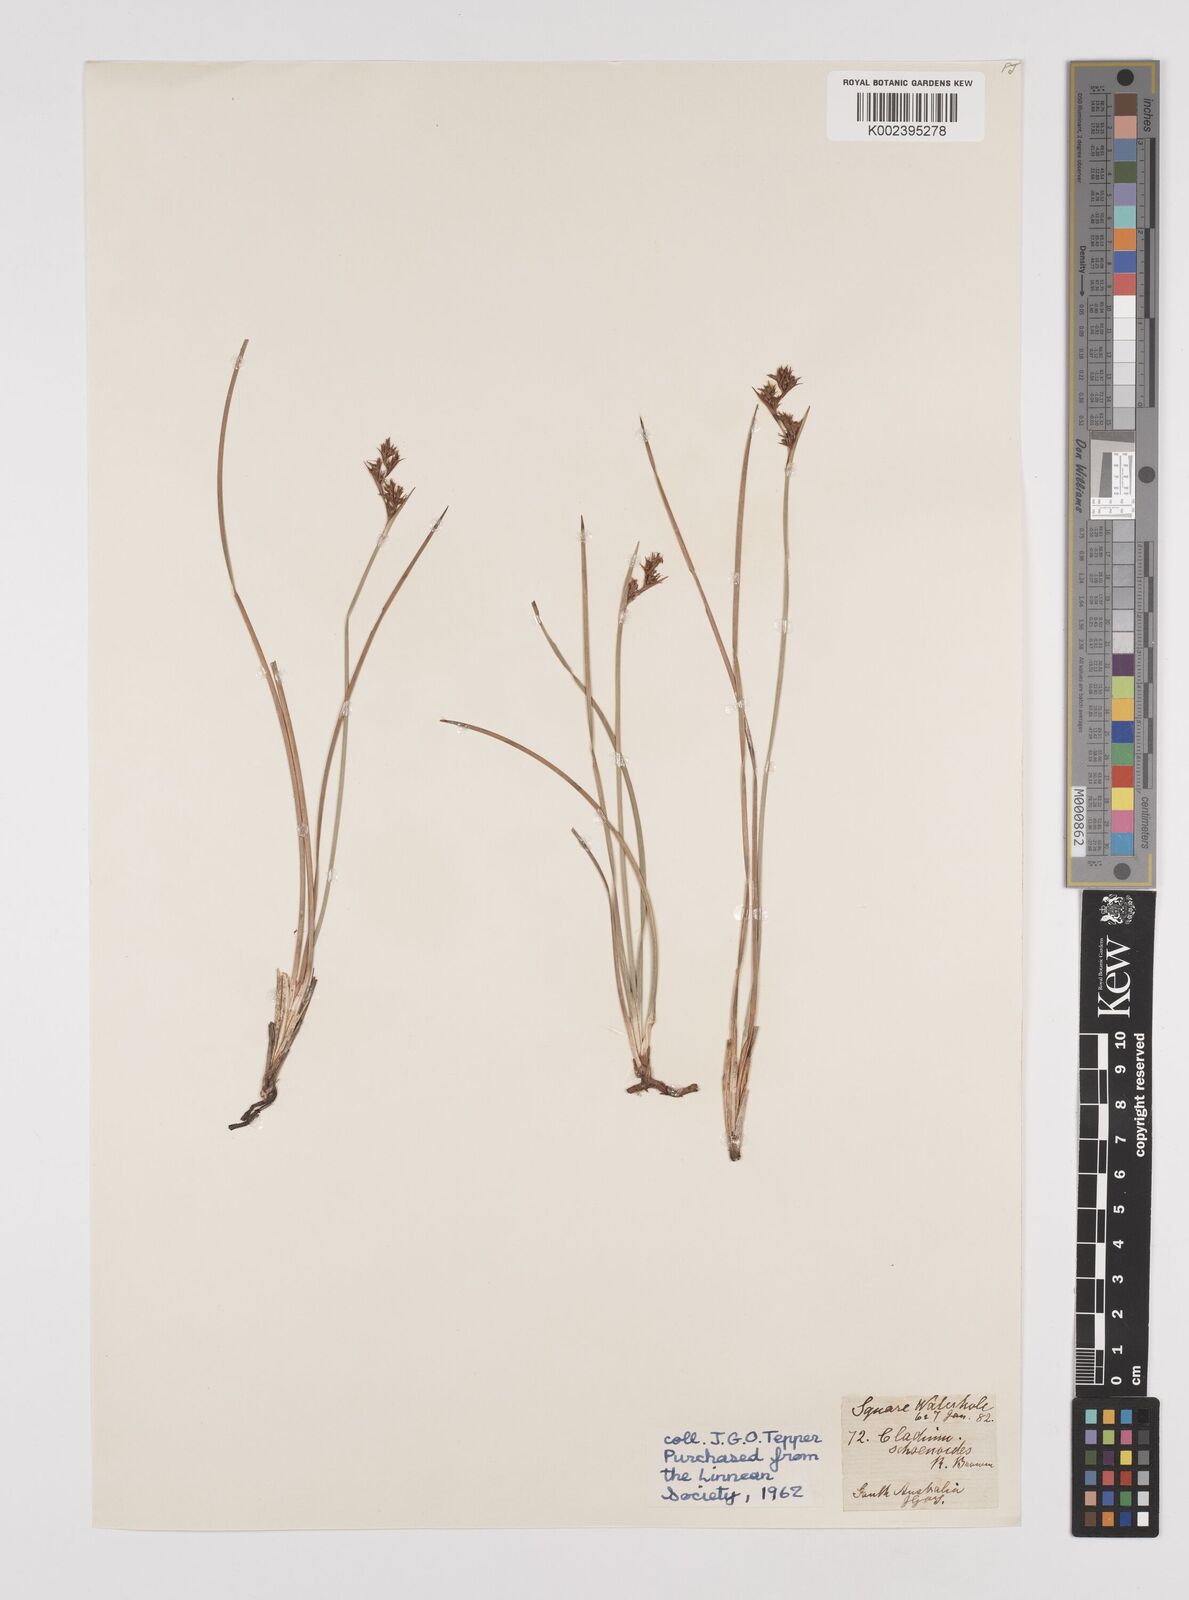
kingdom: Plantae
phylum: Tracheophyta
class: Liliopsida
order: Poales
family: Cyperaceae
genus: Machaerina
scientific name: Machaerina acuta
